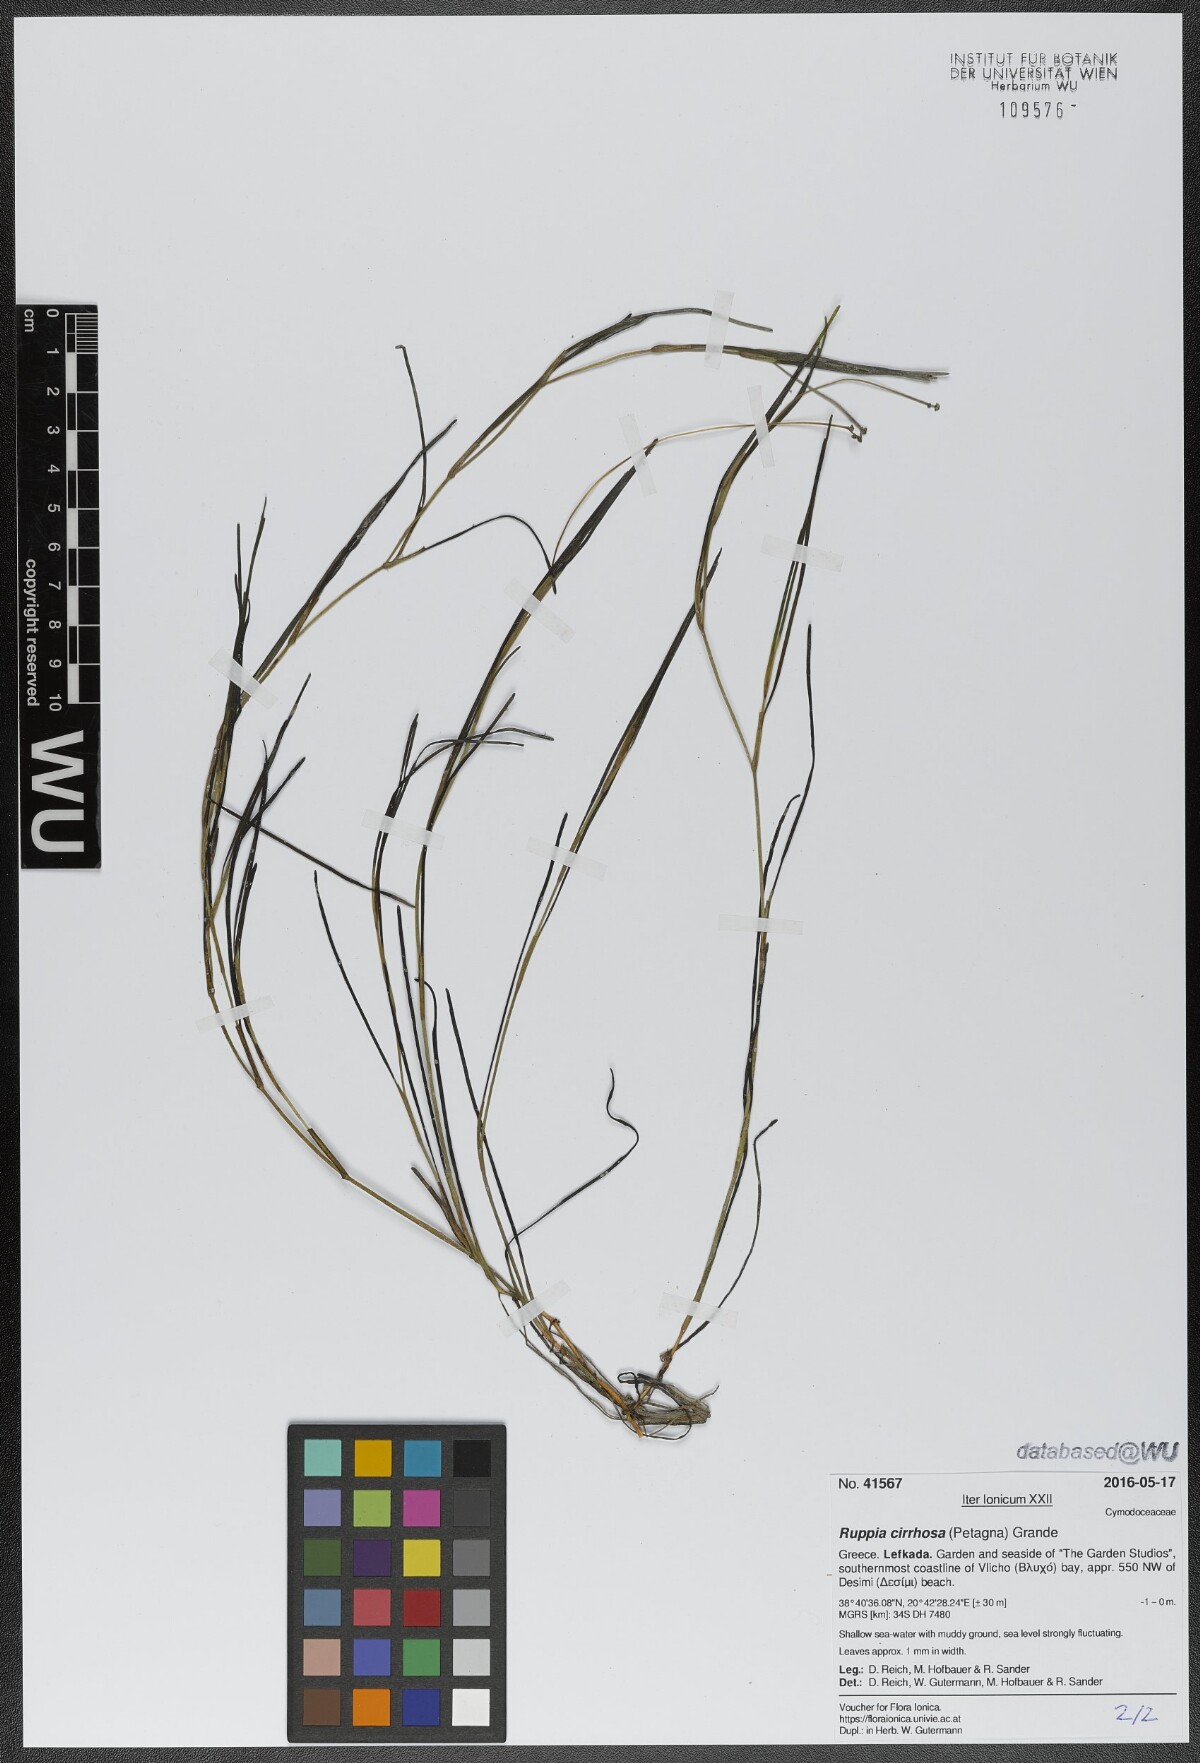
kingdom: Plantae
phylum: Tracheophyta
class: Liliopsida
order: Alismatales
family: Ruppiaceae
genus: Ruppia
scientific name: Ruppia cirrhosa
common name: Spiral tasselweed
